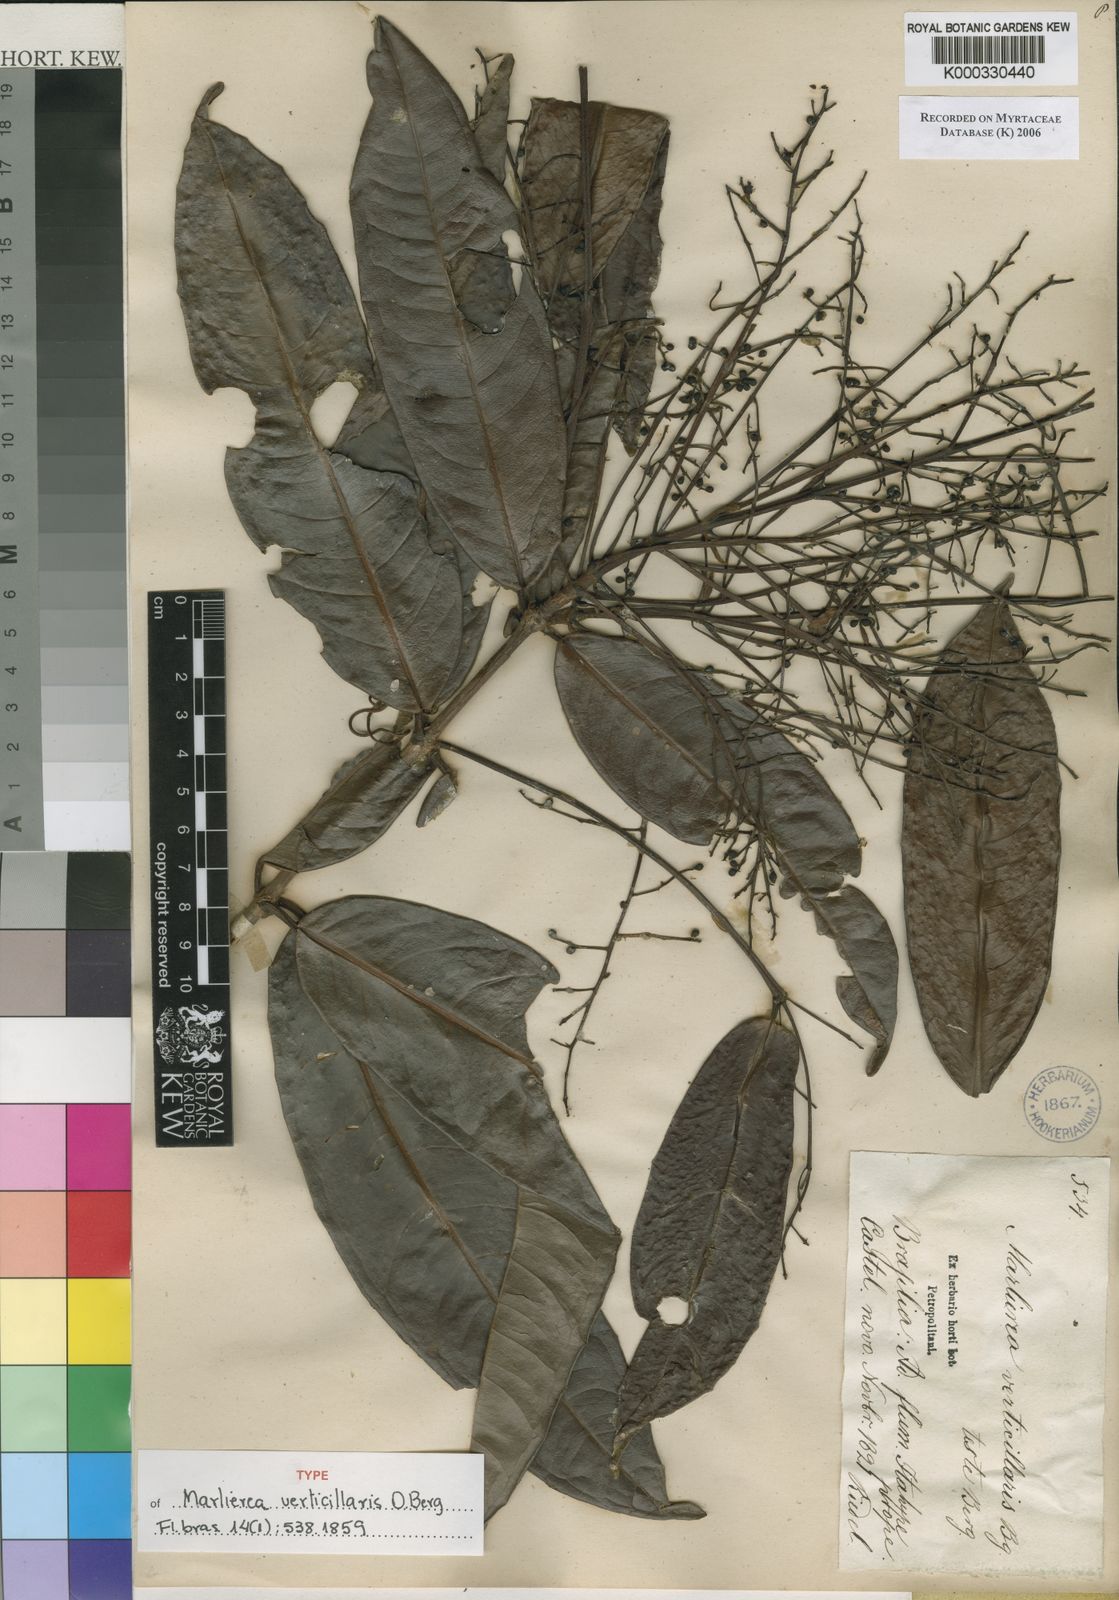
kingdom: Plantae
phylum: Tracheophyta
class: Magnoliopsida
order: Myrtales
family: Myrtaceae
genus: Myrcia
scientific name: Myrcia neoverticillaris
